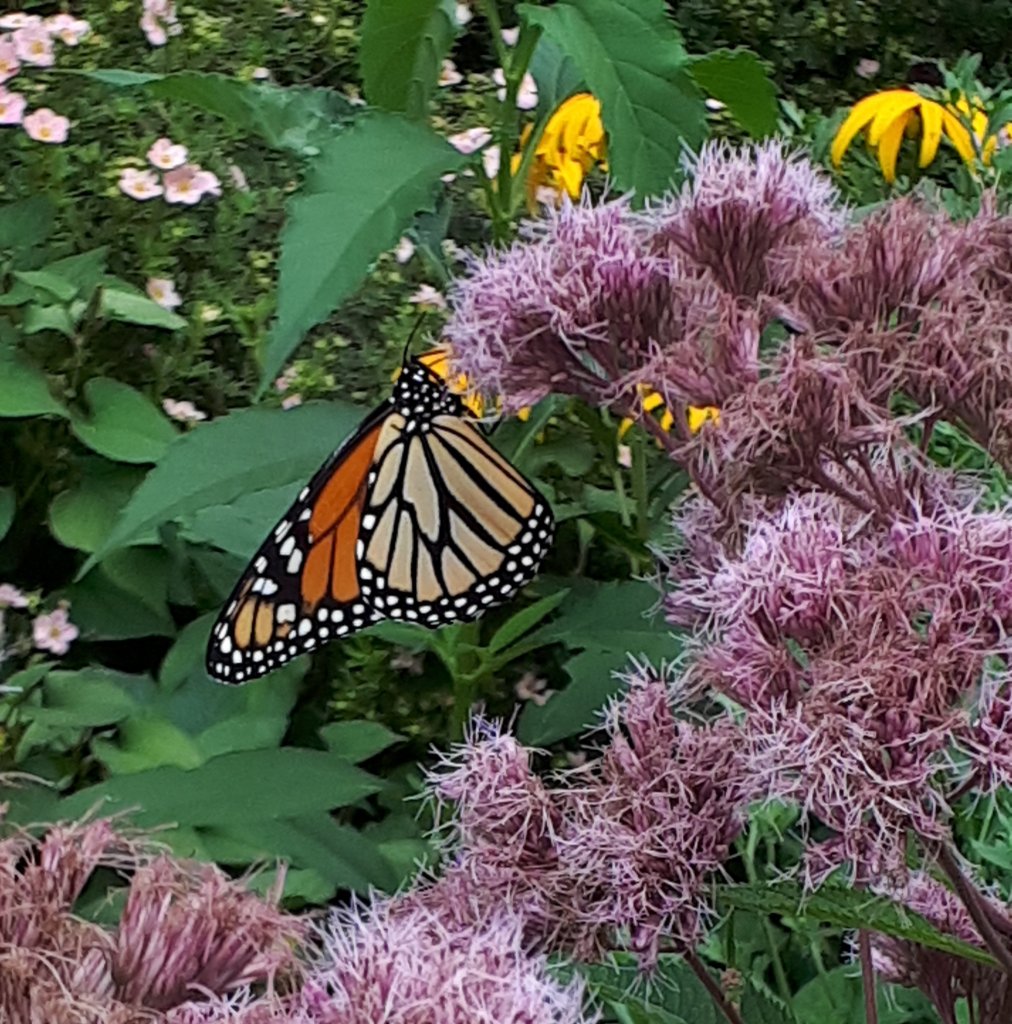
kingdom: Animalia
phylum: Arthropoda
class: Insecta
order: Lepidoptera
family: Nymphalidae
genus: Danaus
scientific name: Danaus plexippus
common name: Monarch
